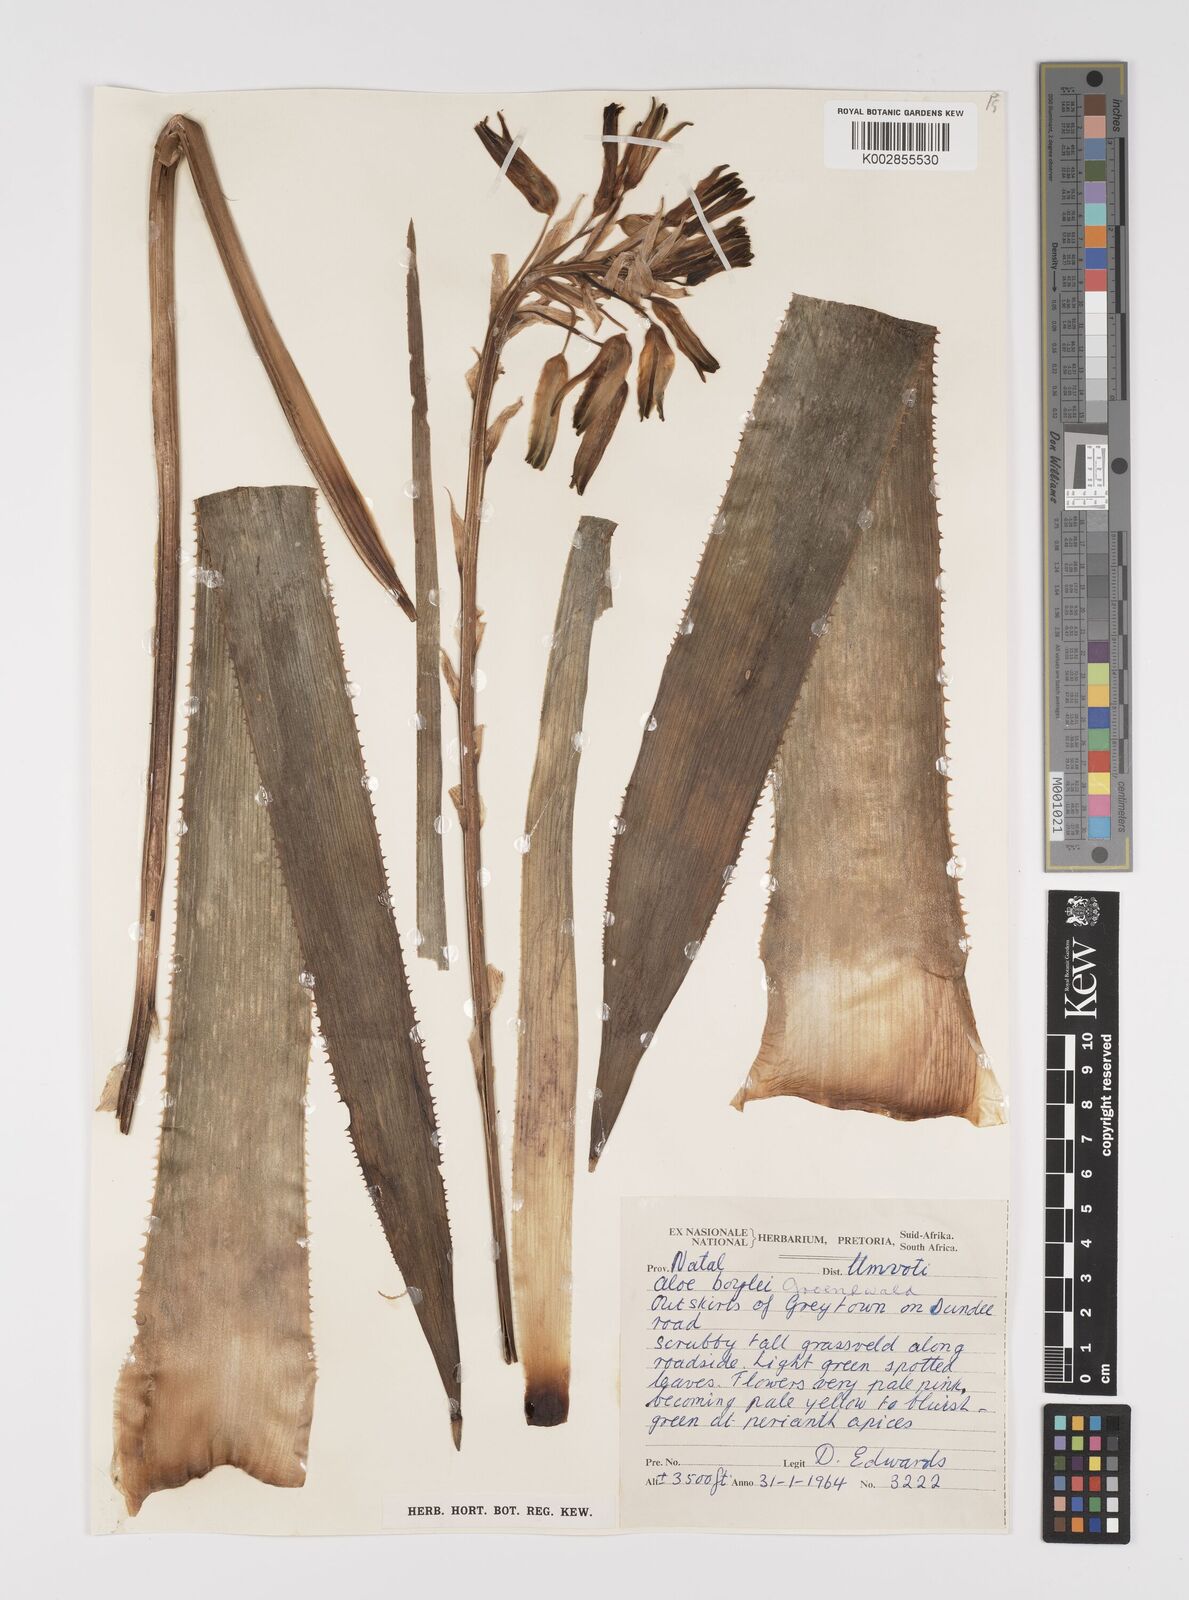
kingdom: Plantae
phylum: Tracheophyta
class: Liliopsida
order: Asparagales
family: Asphodelaceae
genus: Aloe
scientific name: Aloe boylei
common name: Broad-leaved grass aloe
